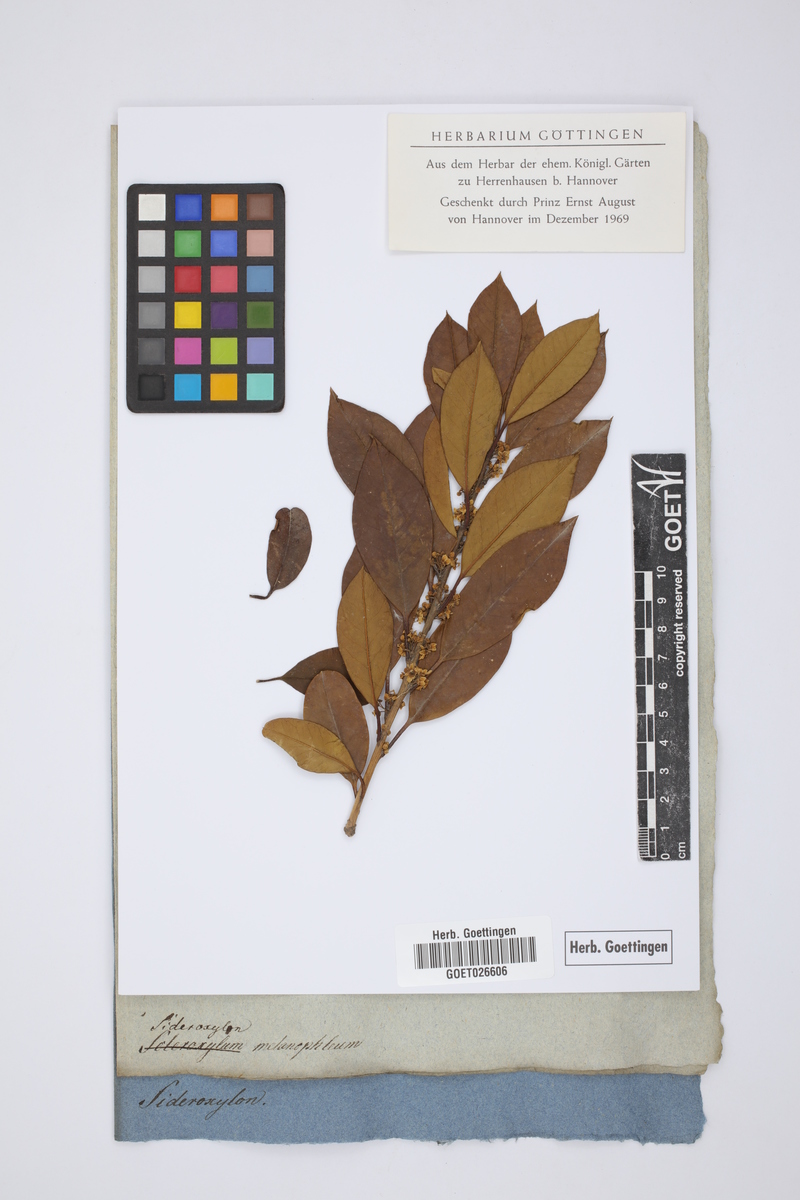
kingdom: Plantae
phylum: Tracheophyta
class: Magnoliopsida
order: Ericales
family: Primulaceae
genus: Myrsine
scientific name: Myrsine melanophloeos
